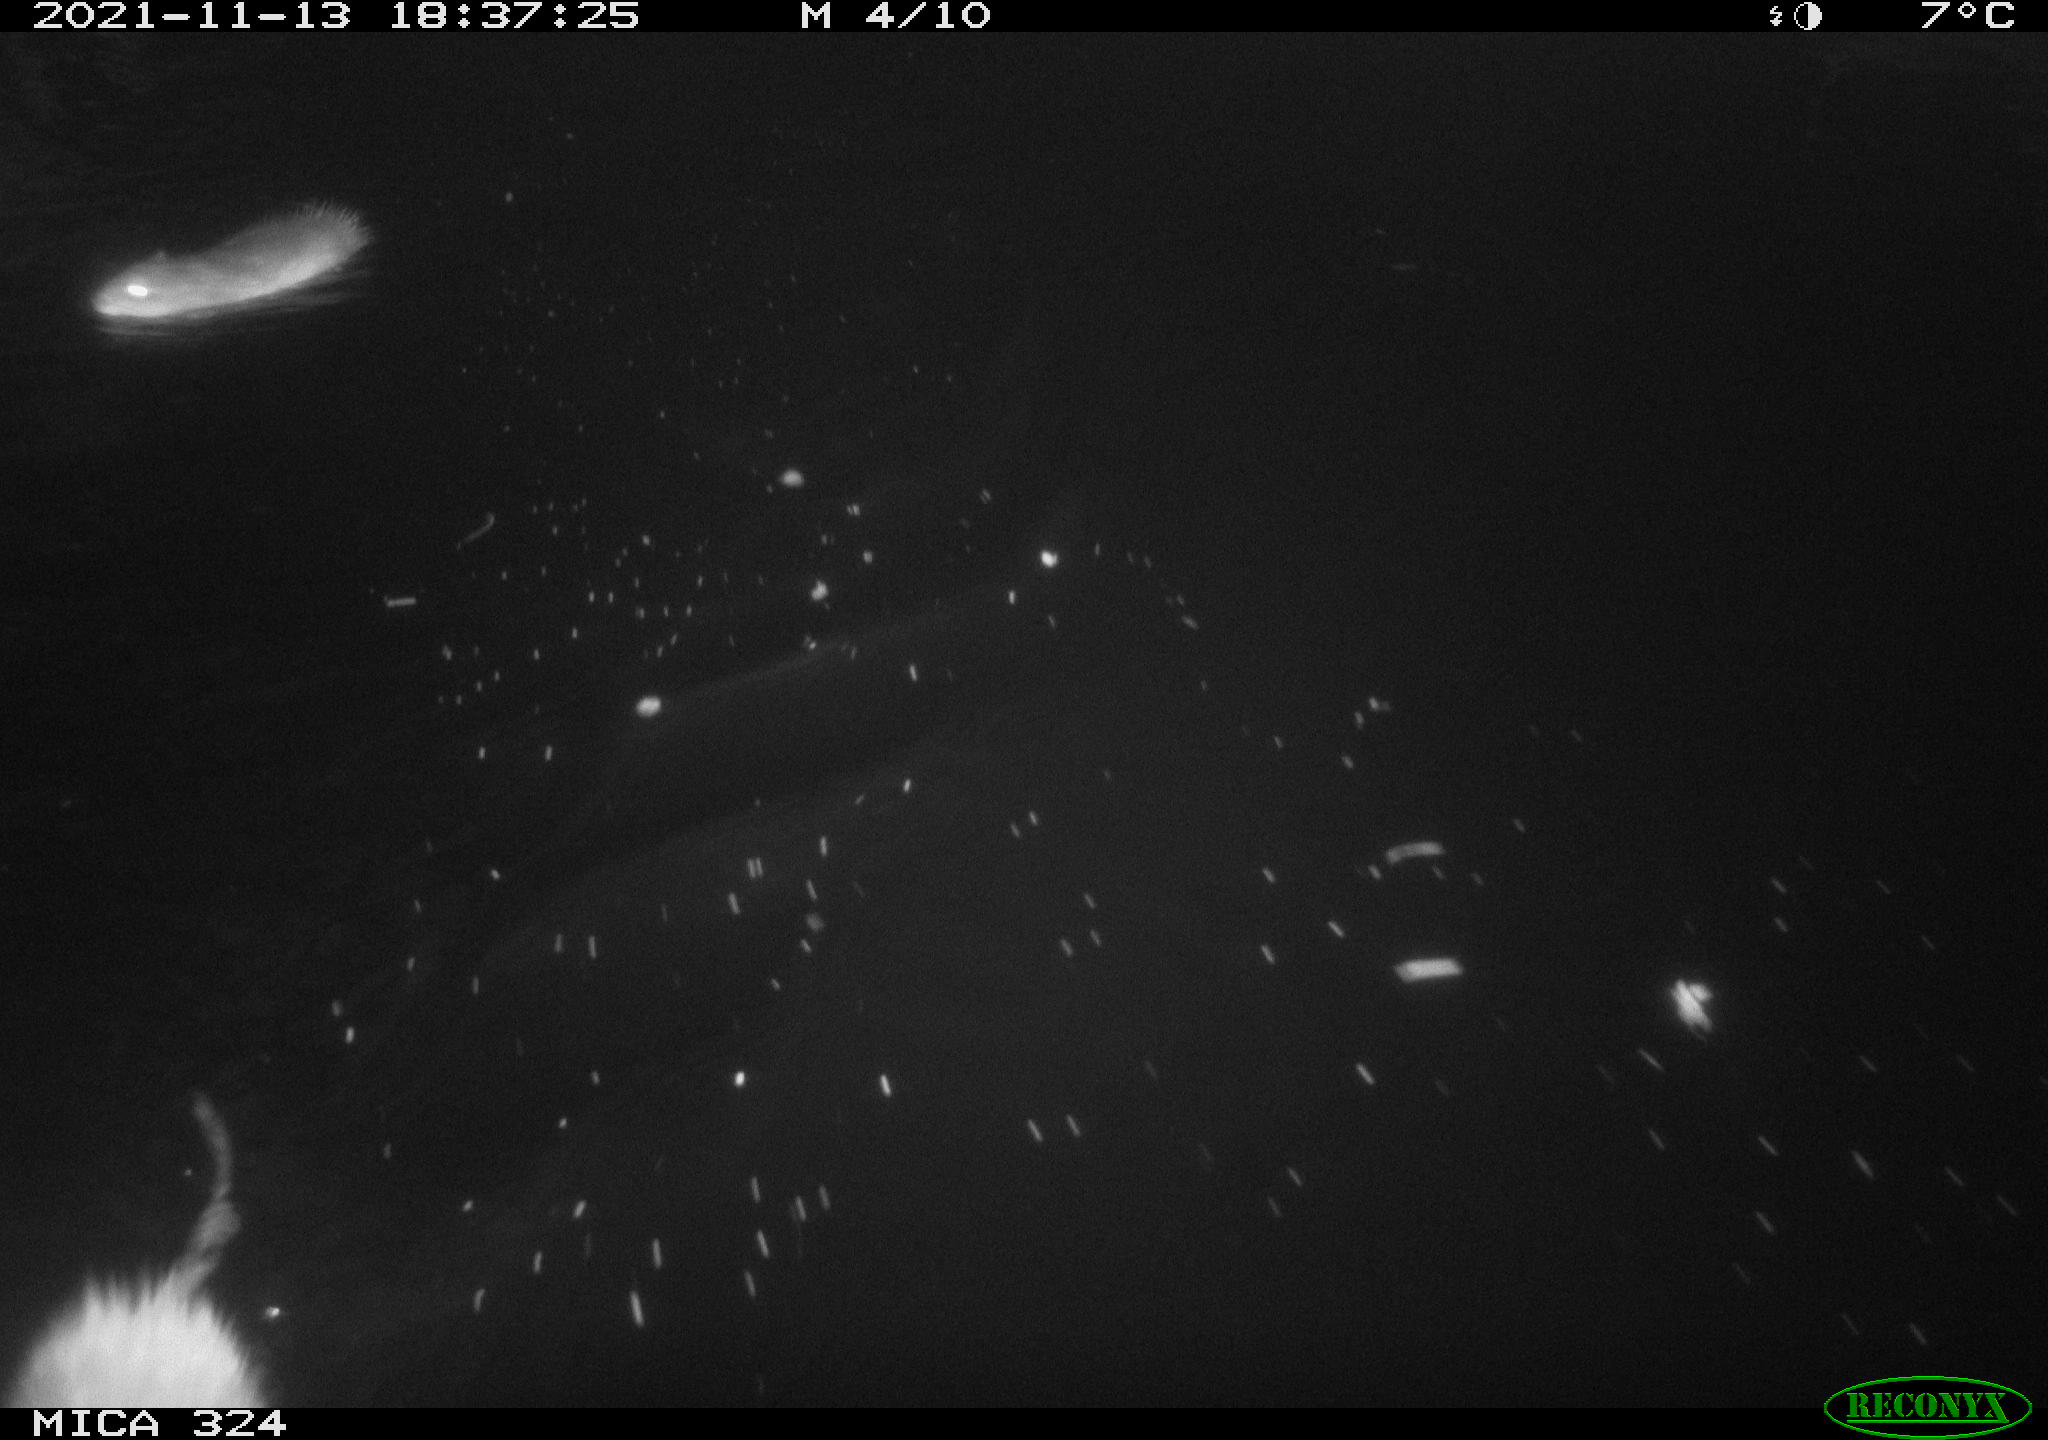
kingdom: Animalia
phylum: Chordata
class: Mammalia
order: Rodentia
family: Cricetidae
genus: Ondatra
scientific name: Ondatra zibethicus
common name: Muskrat
